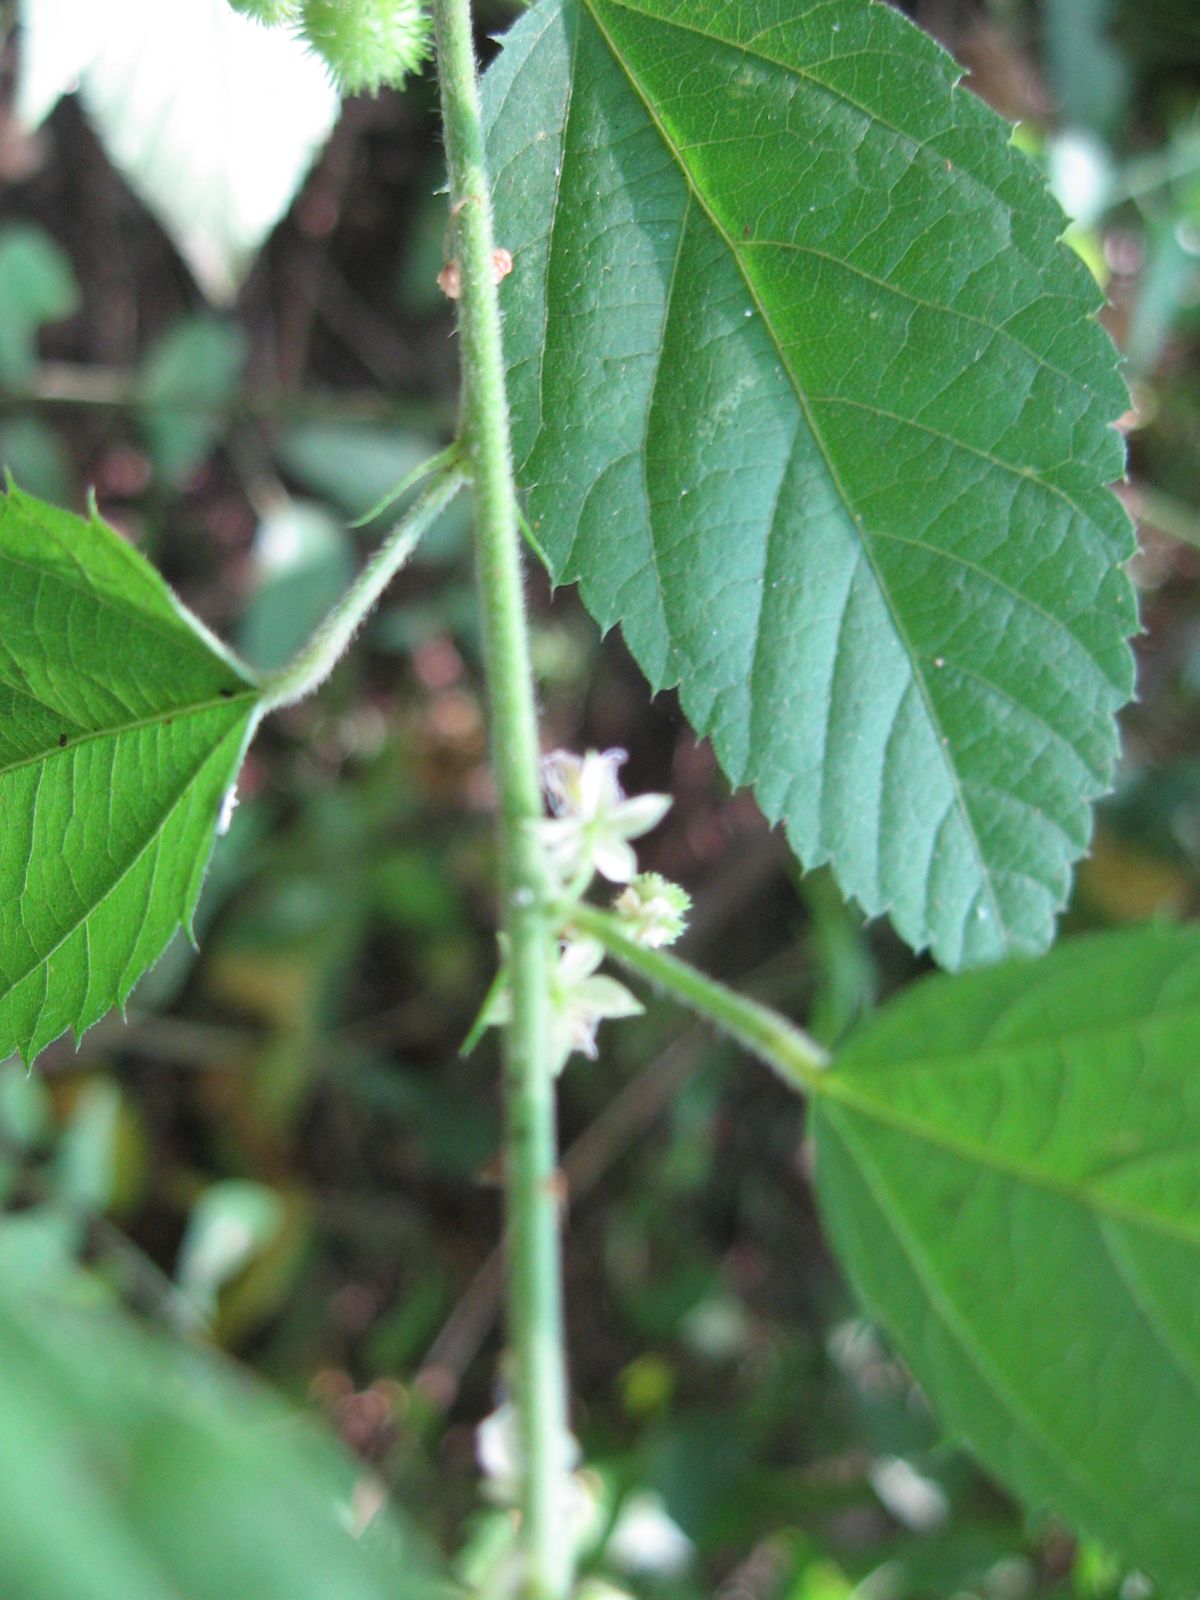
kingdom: Plantae
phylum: Tracheophyta
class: Magnoliopsida
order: Malvales
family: Malvaceae
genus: Ayenia
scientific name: Ayenia dentata
